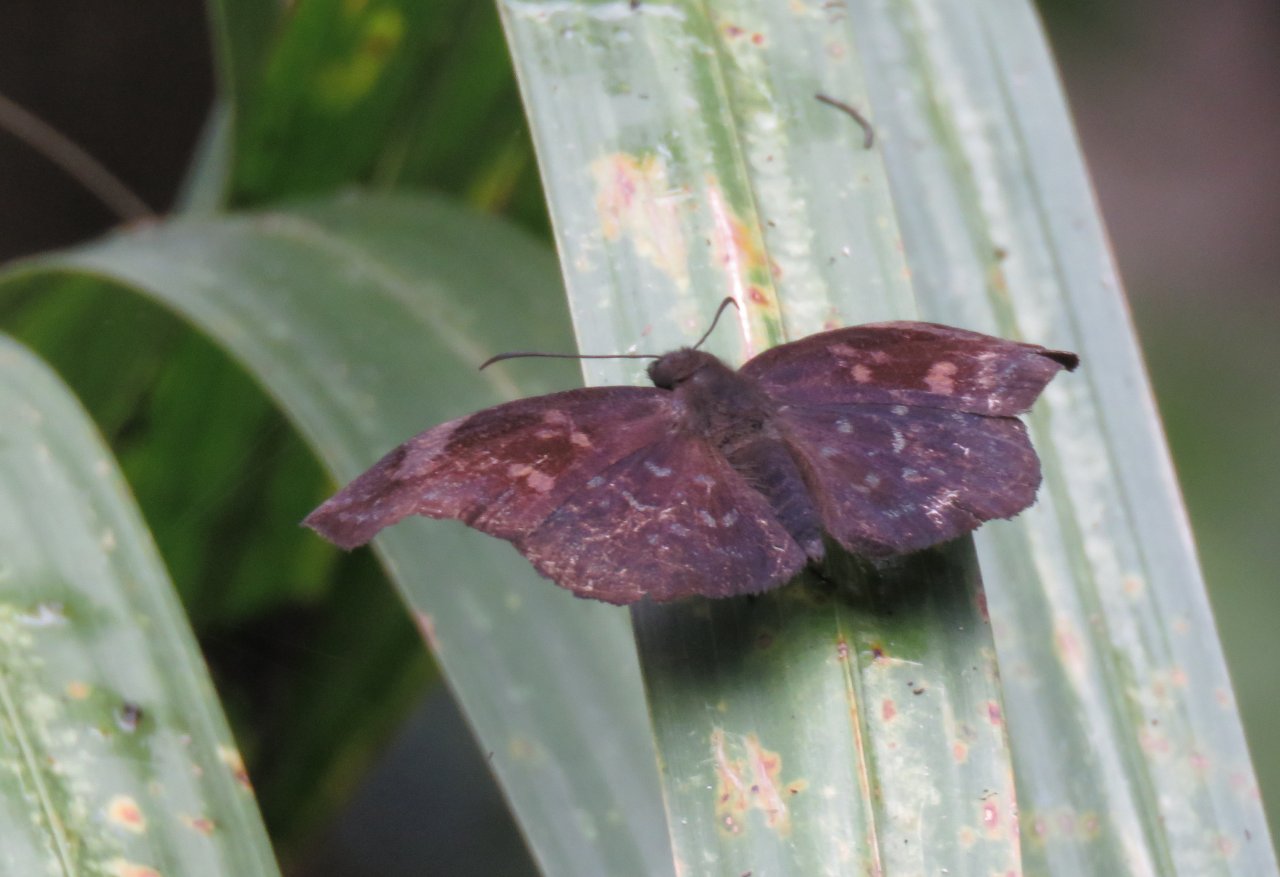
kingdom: Animalia
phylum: Arthropoda
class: Insecta
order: Lepidoptera
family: Hesperiidae
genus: Achlyodes
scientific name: Achlyodes thraso
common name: Sickle-winged Skipper
